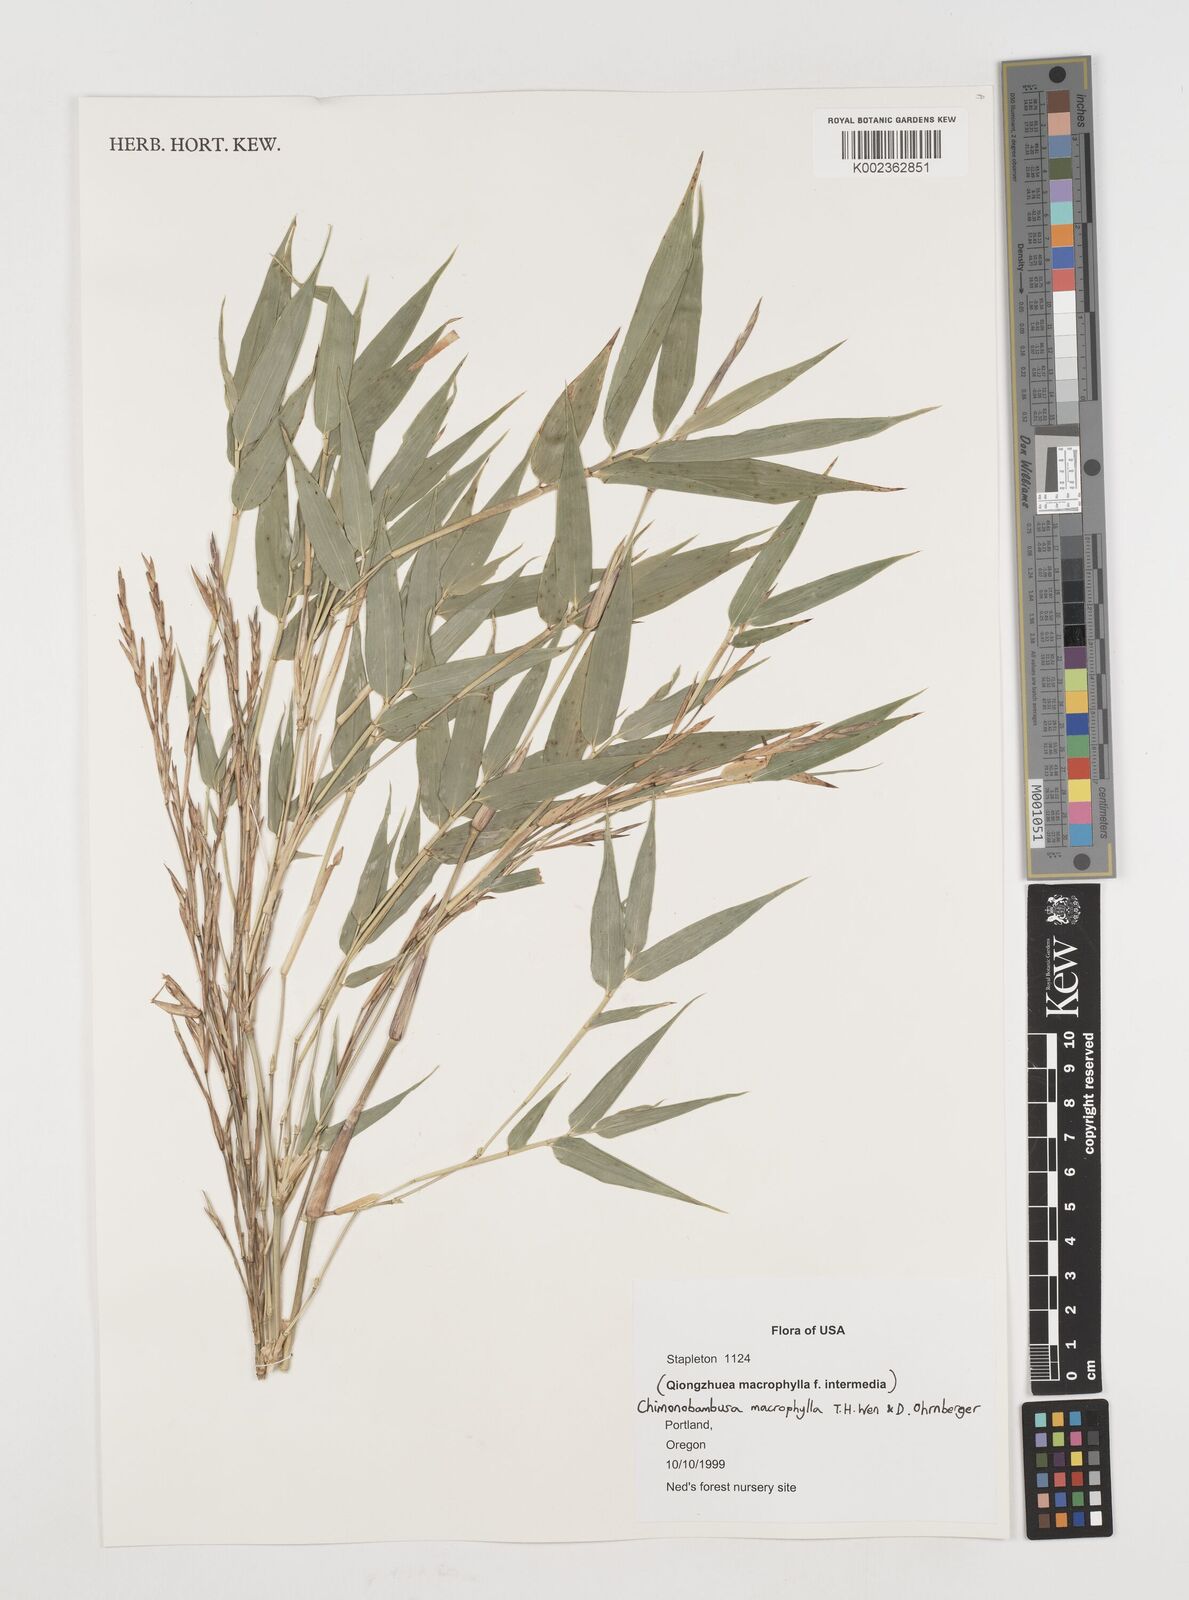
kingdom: Plantae
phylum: Tracheophyta
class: Liliopsida
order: Poales
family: Poaceae
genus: Chimonobambusa
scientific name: Chimonobambusa macrophylla
